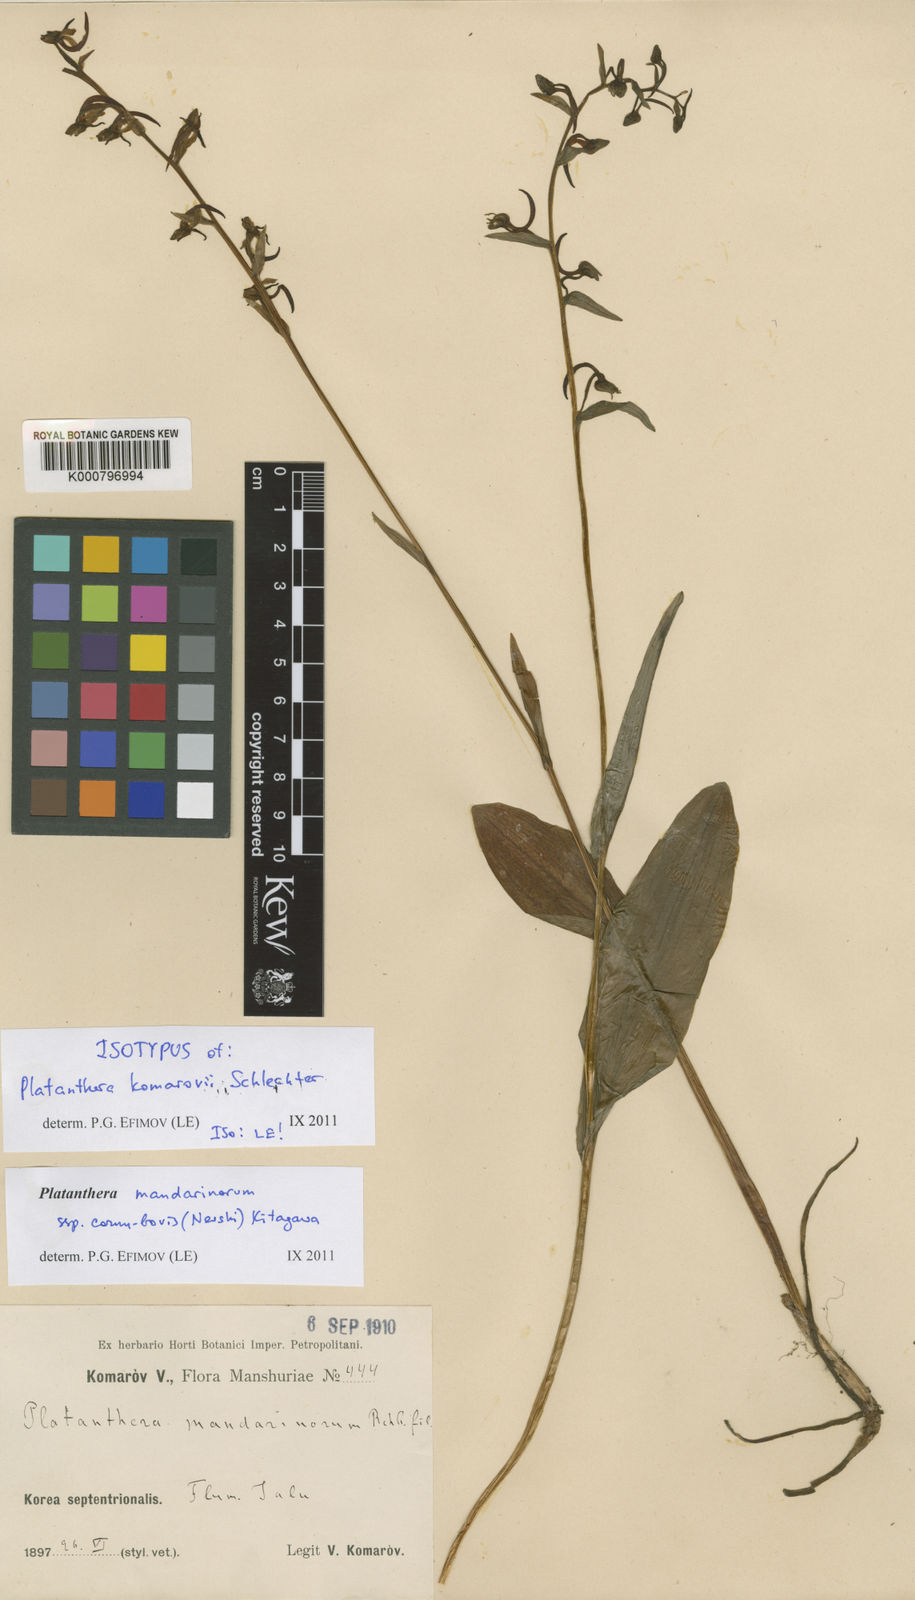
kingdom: Plantae
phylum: Tracheophyta
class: Liliopsida
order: Asparagales
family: Orchidaceae
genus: Platanthera
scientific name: Platanthera komarovii
